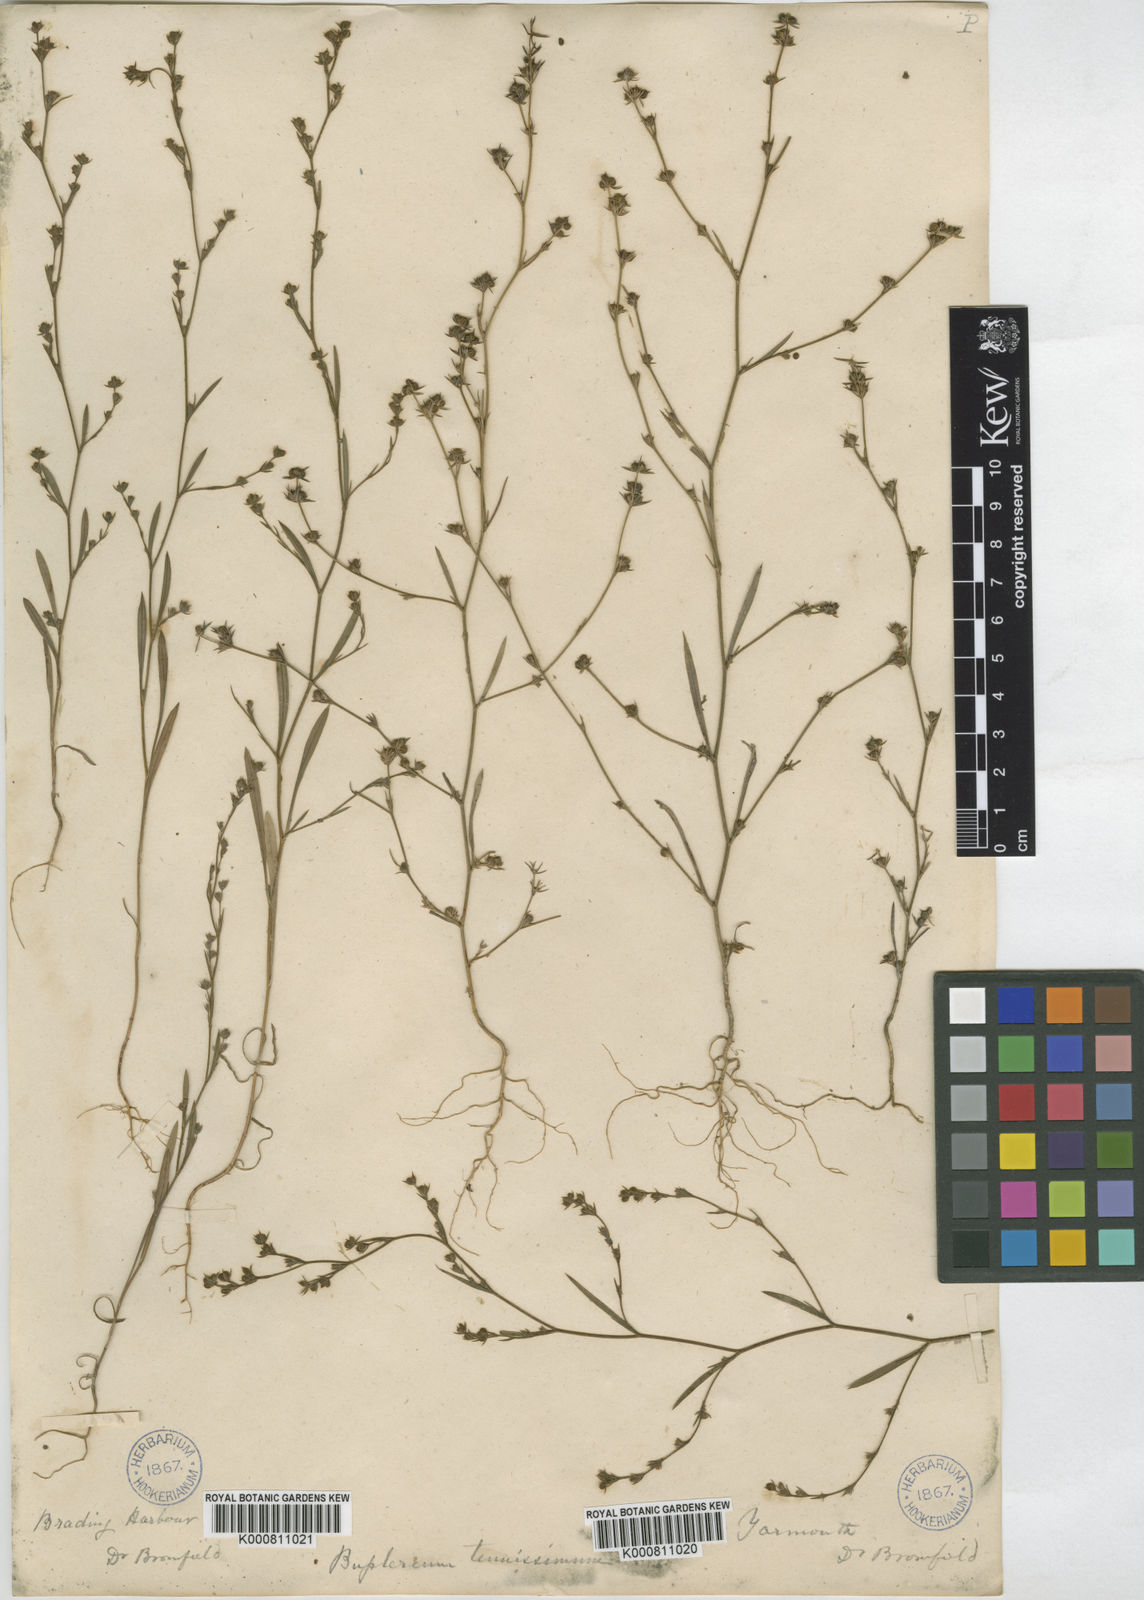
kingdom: Plantae
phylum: Tracheophyta
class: Magnoliopsida
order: Apiales
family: Apiaceae
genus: Bupleurum
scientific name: Bupleurum tenuissimum
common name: Slender hare's-ear
